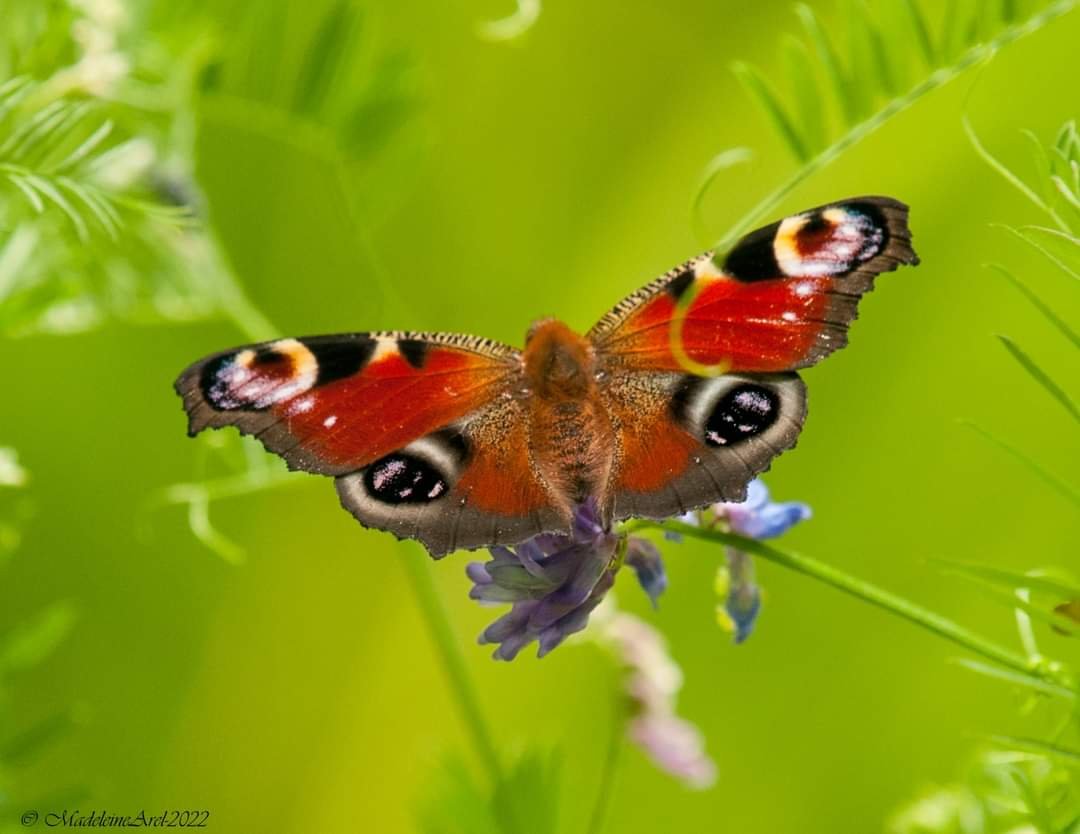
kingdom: Animalia
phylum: Arthropoda
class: Insecta
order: Lepidoptera
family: Nymphalidae
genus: Aglais
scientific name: Aglais io
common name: European Peacock
